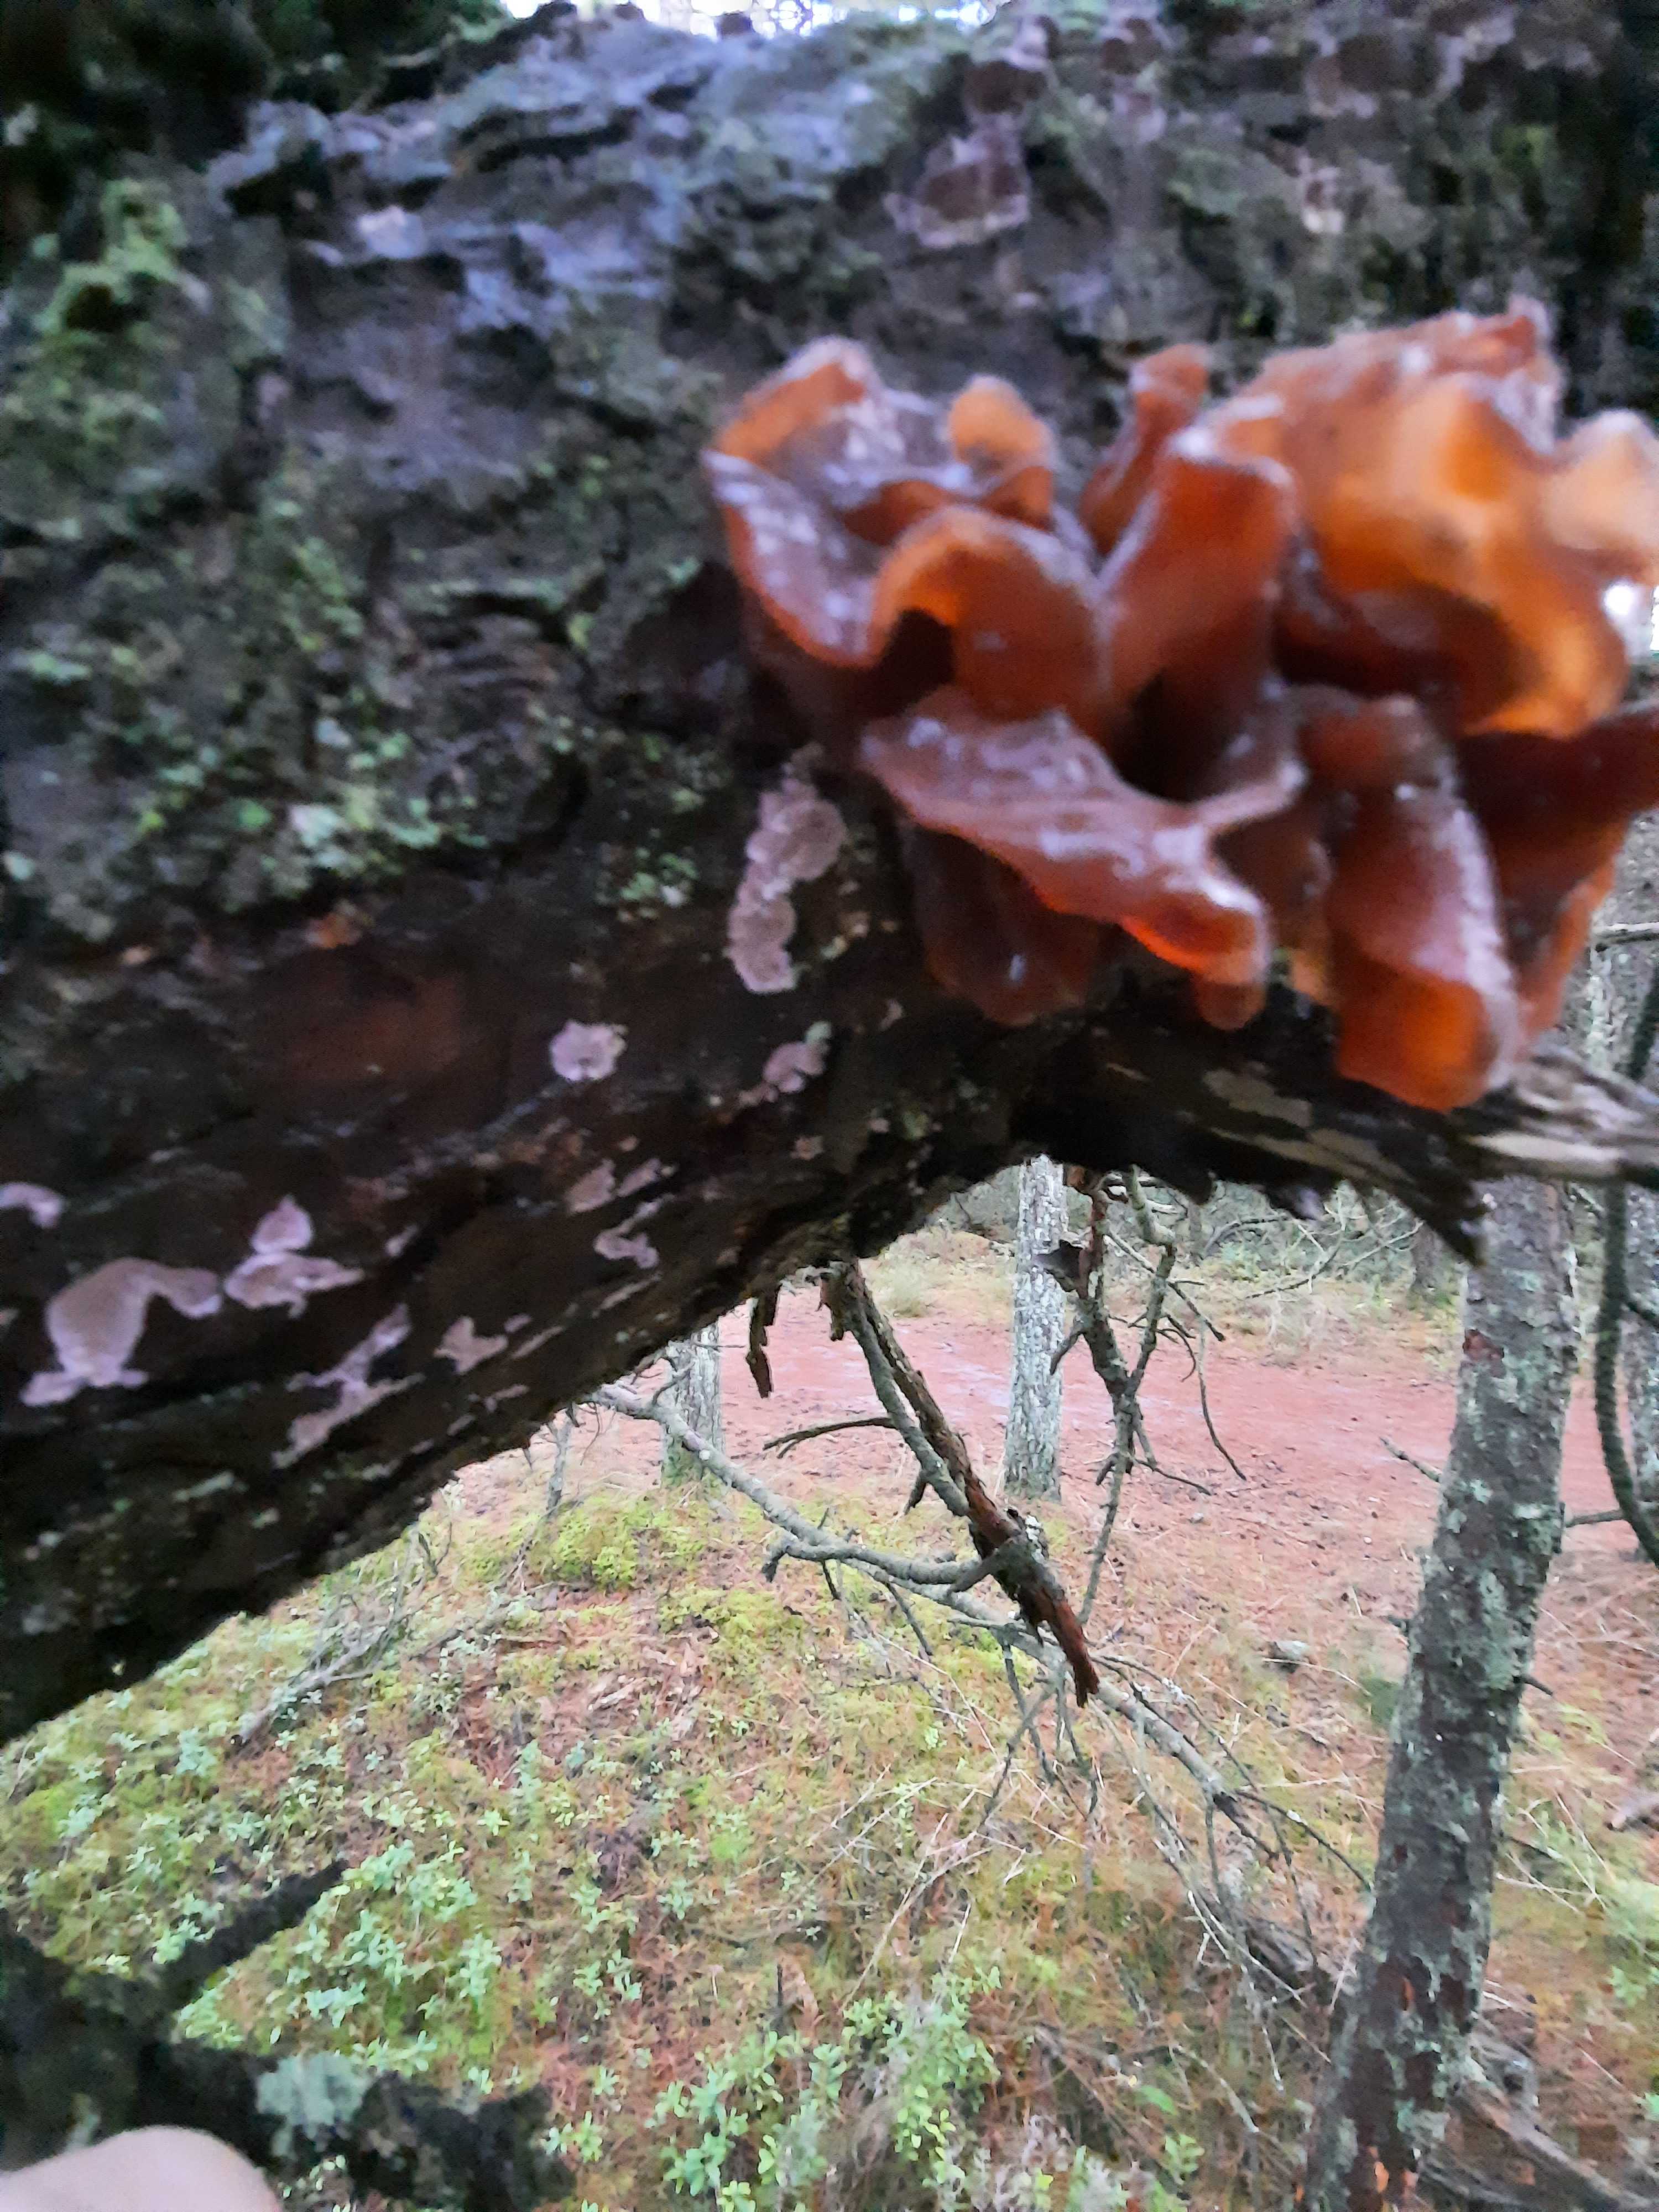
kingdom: Fungi
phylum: Basidiomycota
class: Tremellomycetes
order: Tremellales
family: Tremellaceae
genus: Phaeotremella
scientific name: Phaeotremella foliacea
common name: brun bævresvamp
